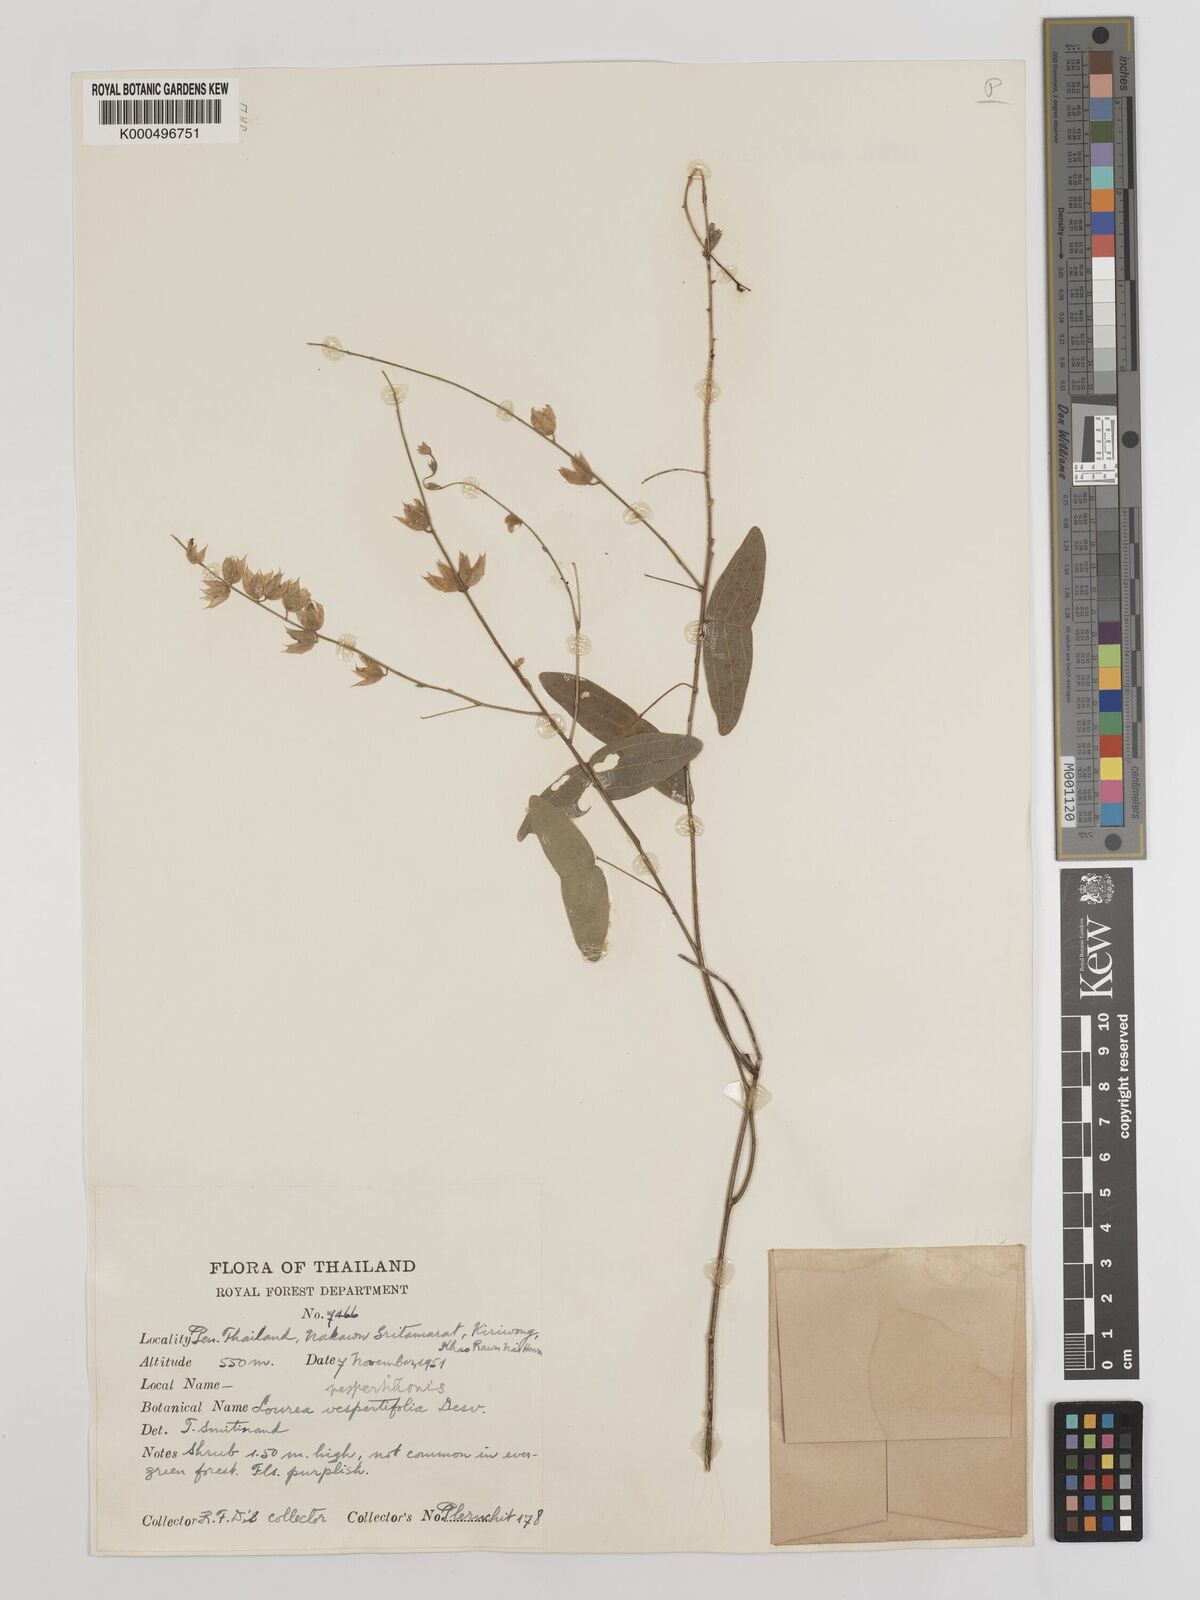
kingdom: Plantae
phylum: Tracheophyta
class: Magnoliopsida
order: Fabales
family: Fabaceae
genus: Christia
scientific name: Christia vespertilionis
